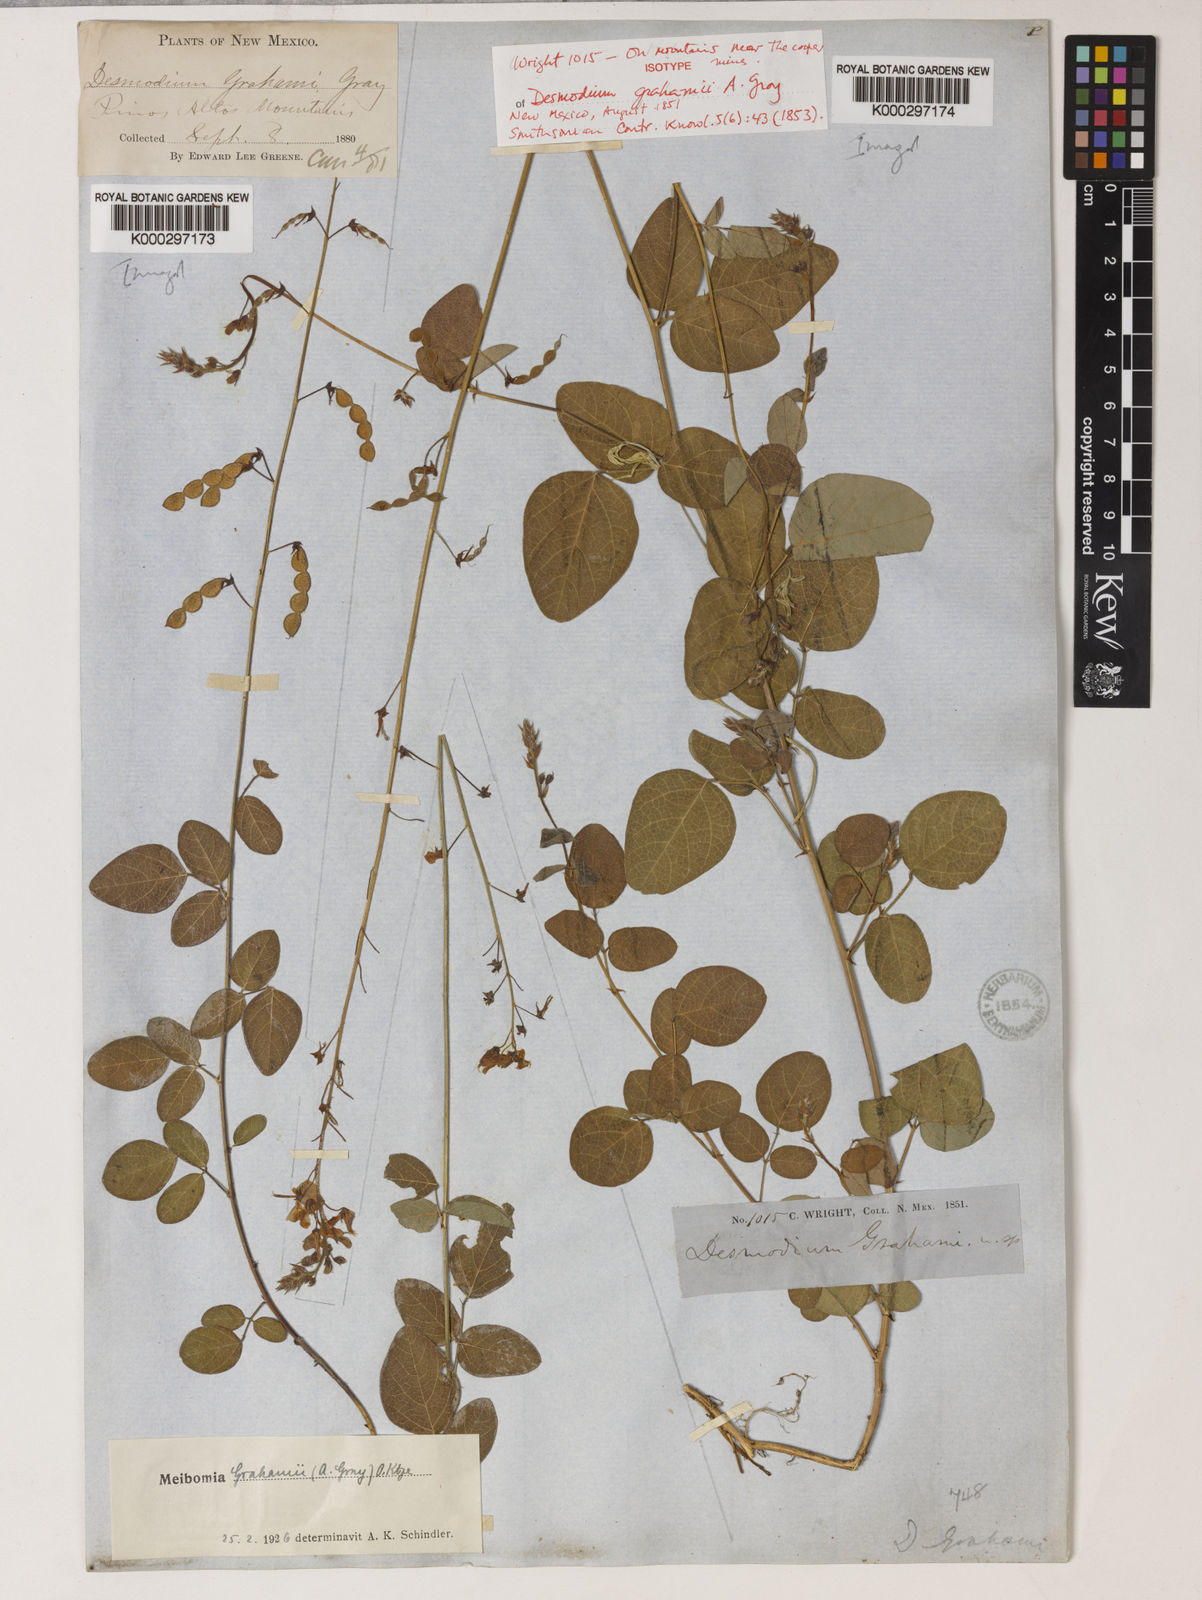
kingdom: Plantae
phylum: Tracheophyta
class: Magnoliopsida
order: Fabales
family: Fabaceae
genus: Desmodium
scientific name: Desmodium grahamii
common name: Graham's tick-trefoil
